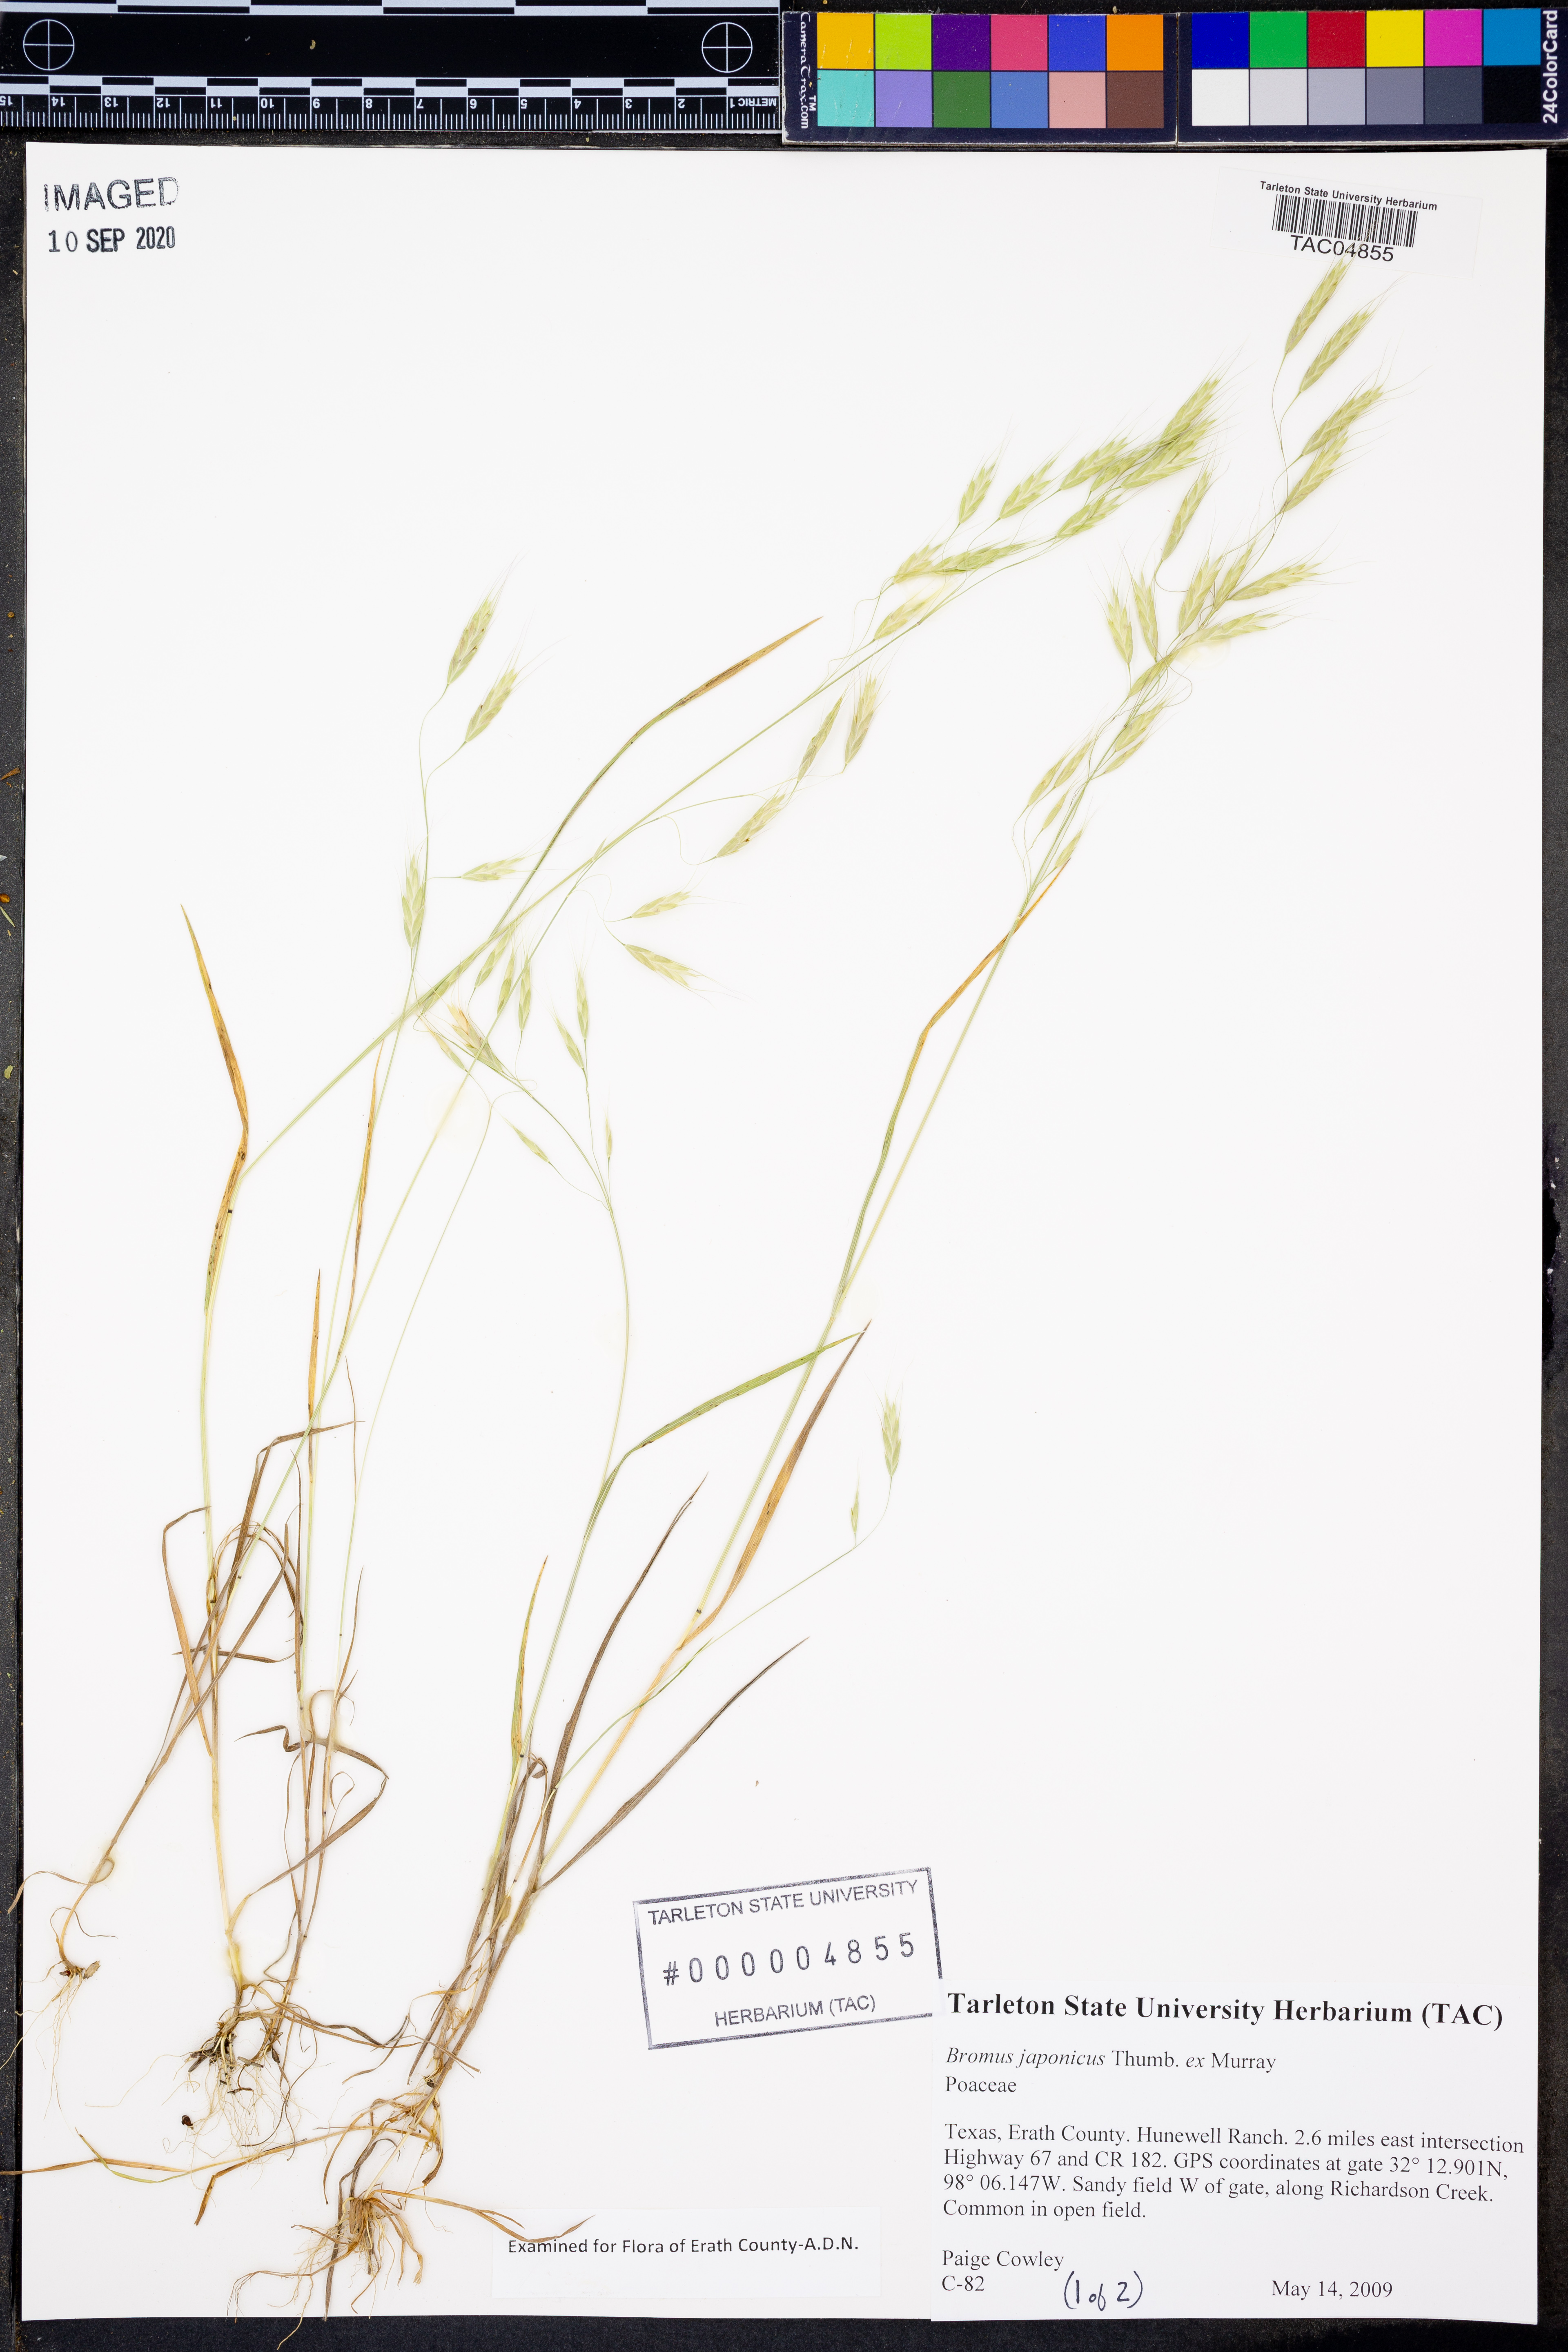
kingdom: Plantae
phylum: Tracheophyta
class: Liliopsida
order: Poales
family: Poaceae
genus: Bromus
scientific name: Bromus japonicus
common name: Japanese brome
